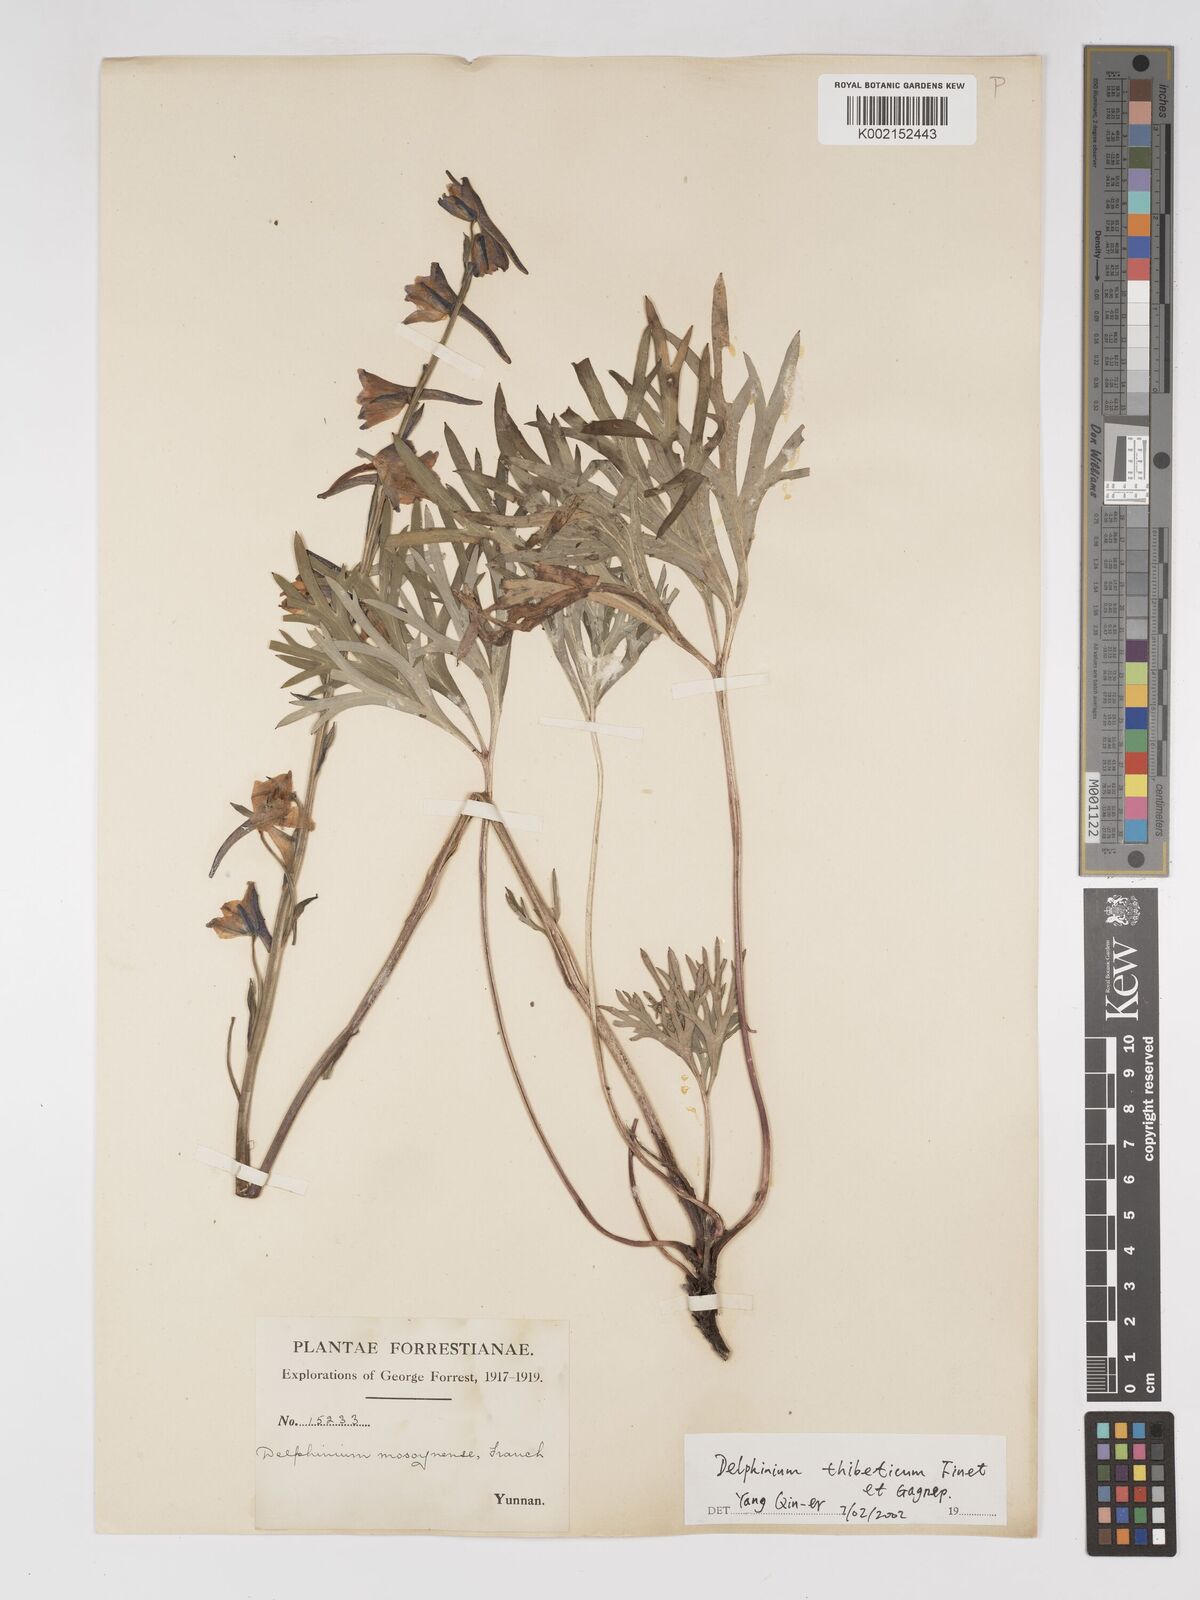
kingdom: Plantae
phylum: Tracheophyta
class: Magnoliopsida
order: Ranunculales
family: Ranunculaceae
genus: Delphinium
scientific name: Delphinium thibeticum
